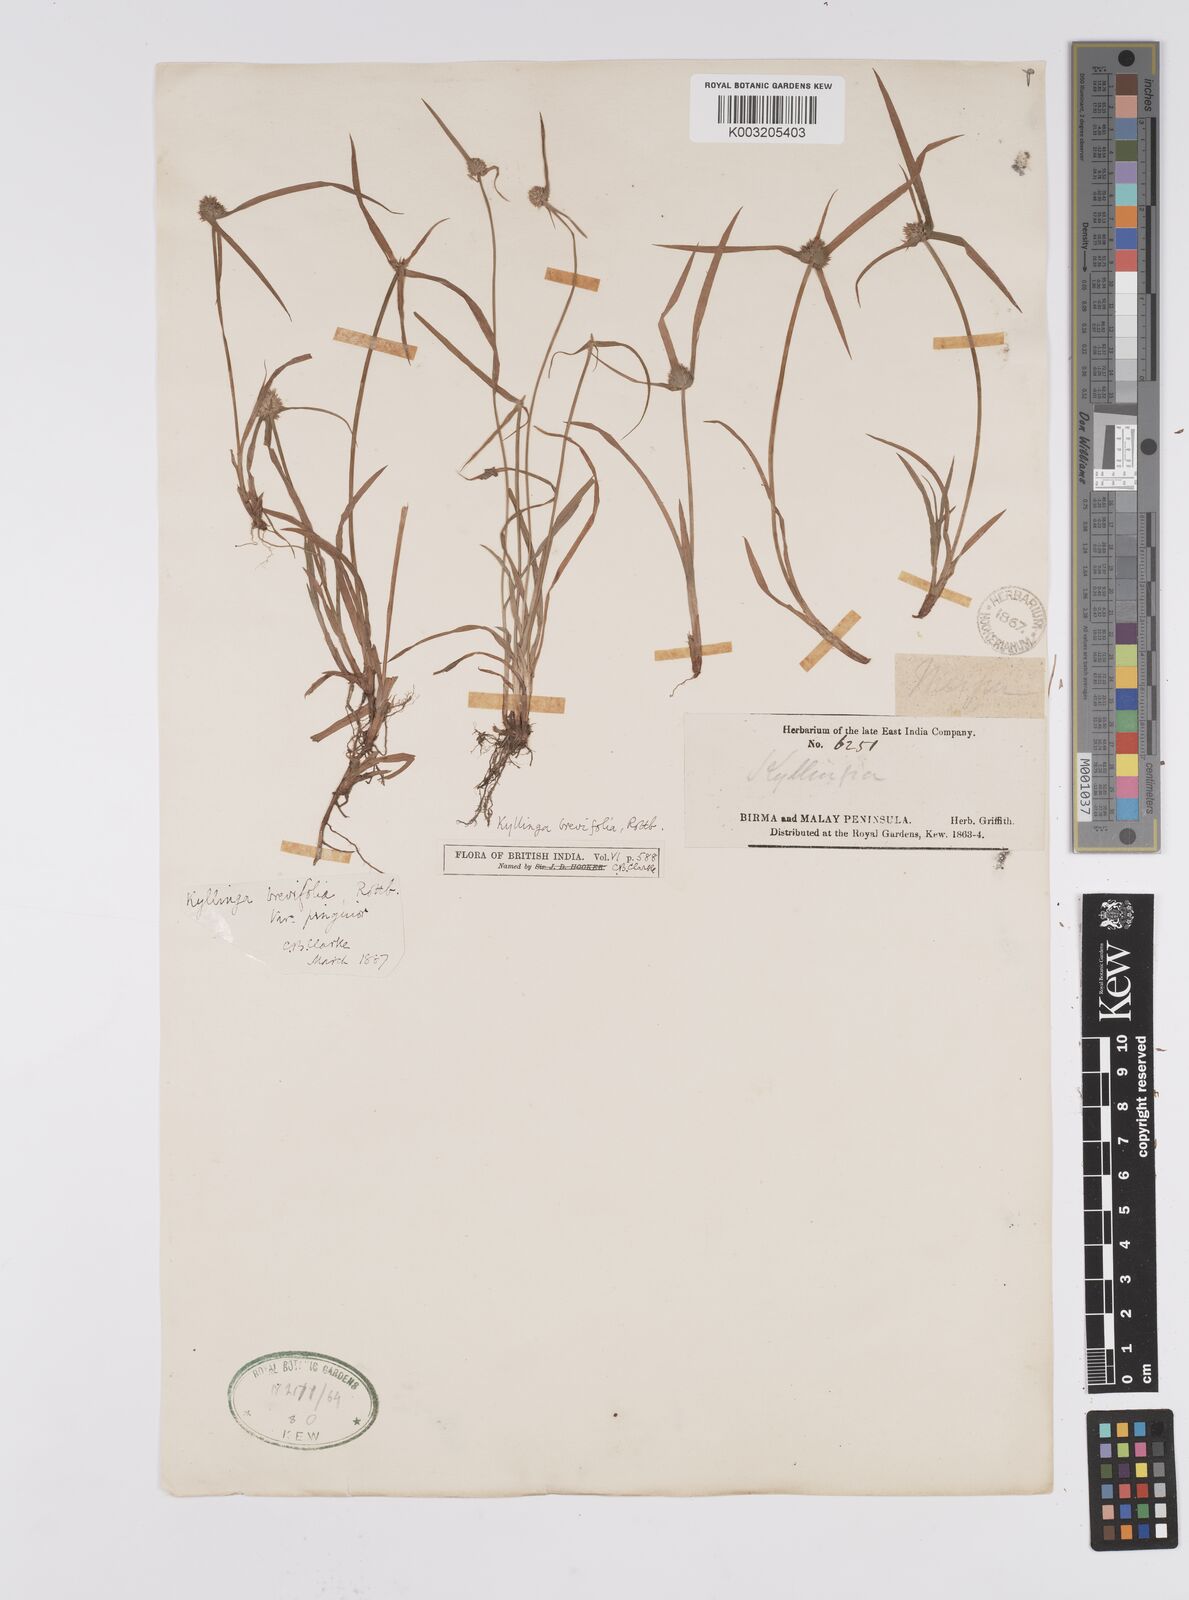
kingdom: Plantae
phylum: Tracheophyta
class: Liliopsida
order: Poales
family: Cyperaceae
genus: Cyperus
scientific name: Cyperus brevifolius
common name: Globe kyllinga
